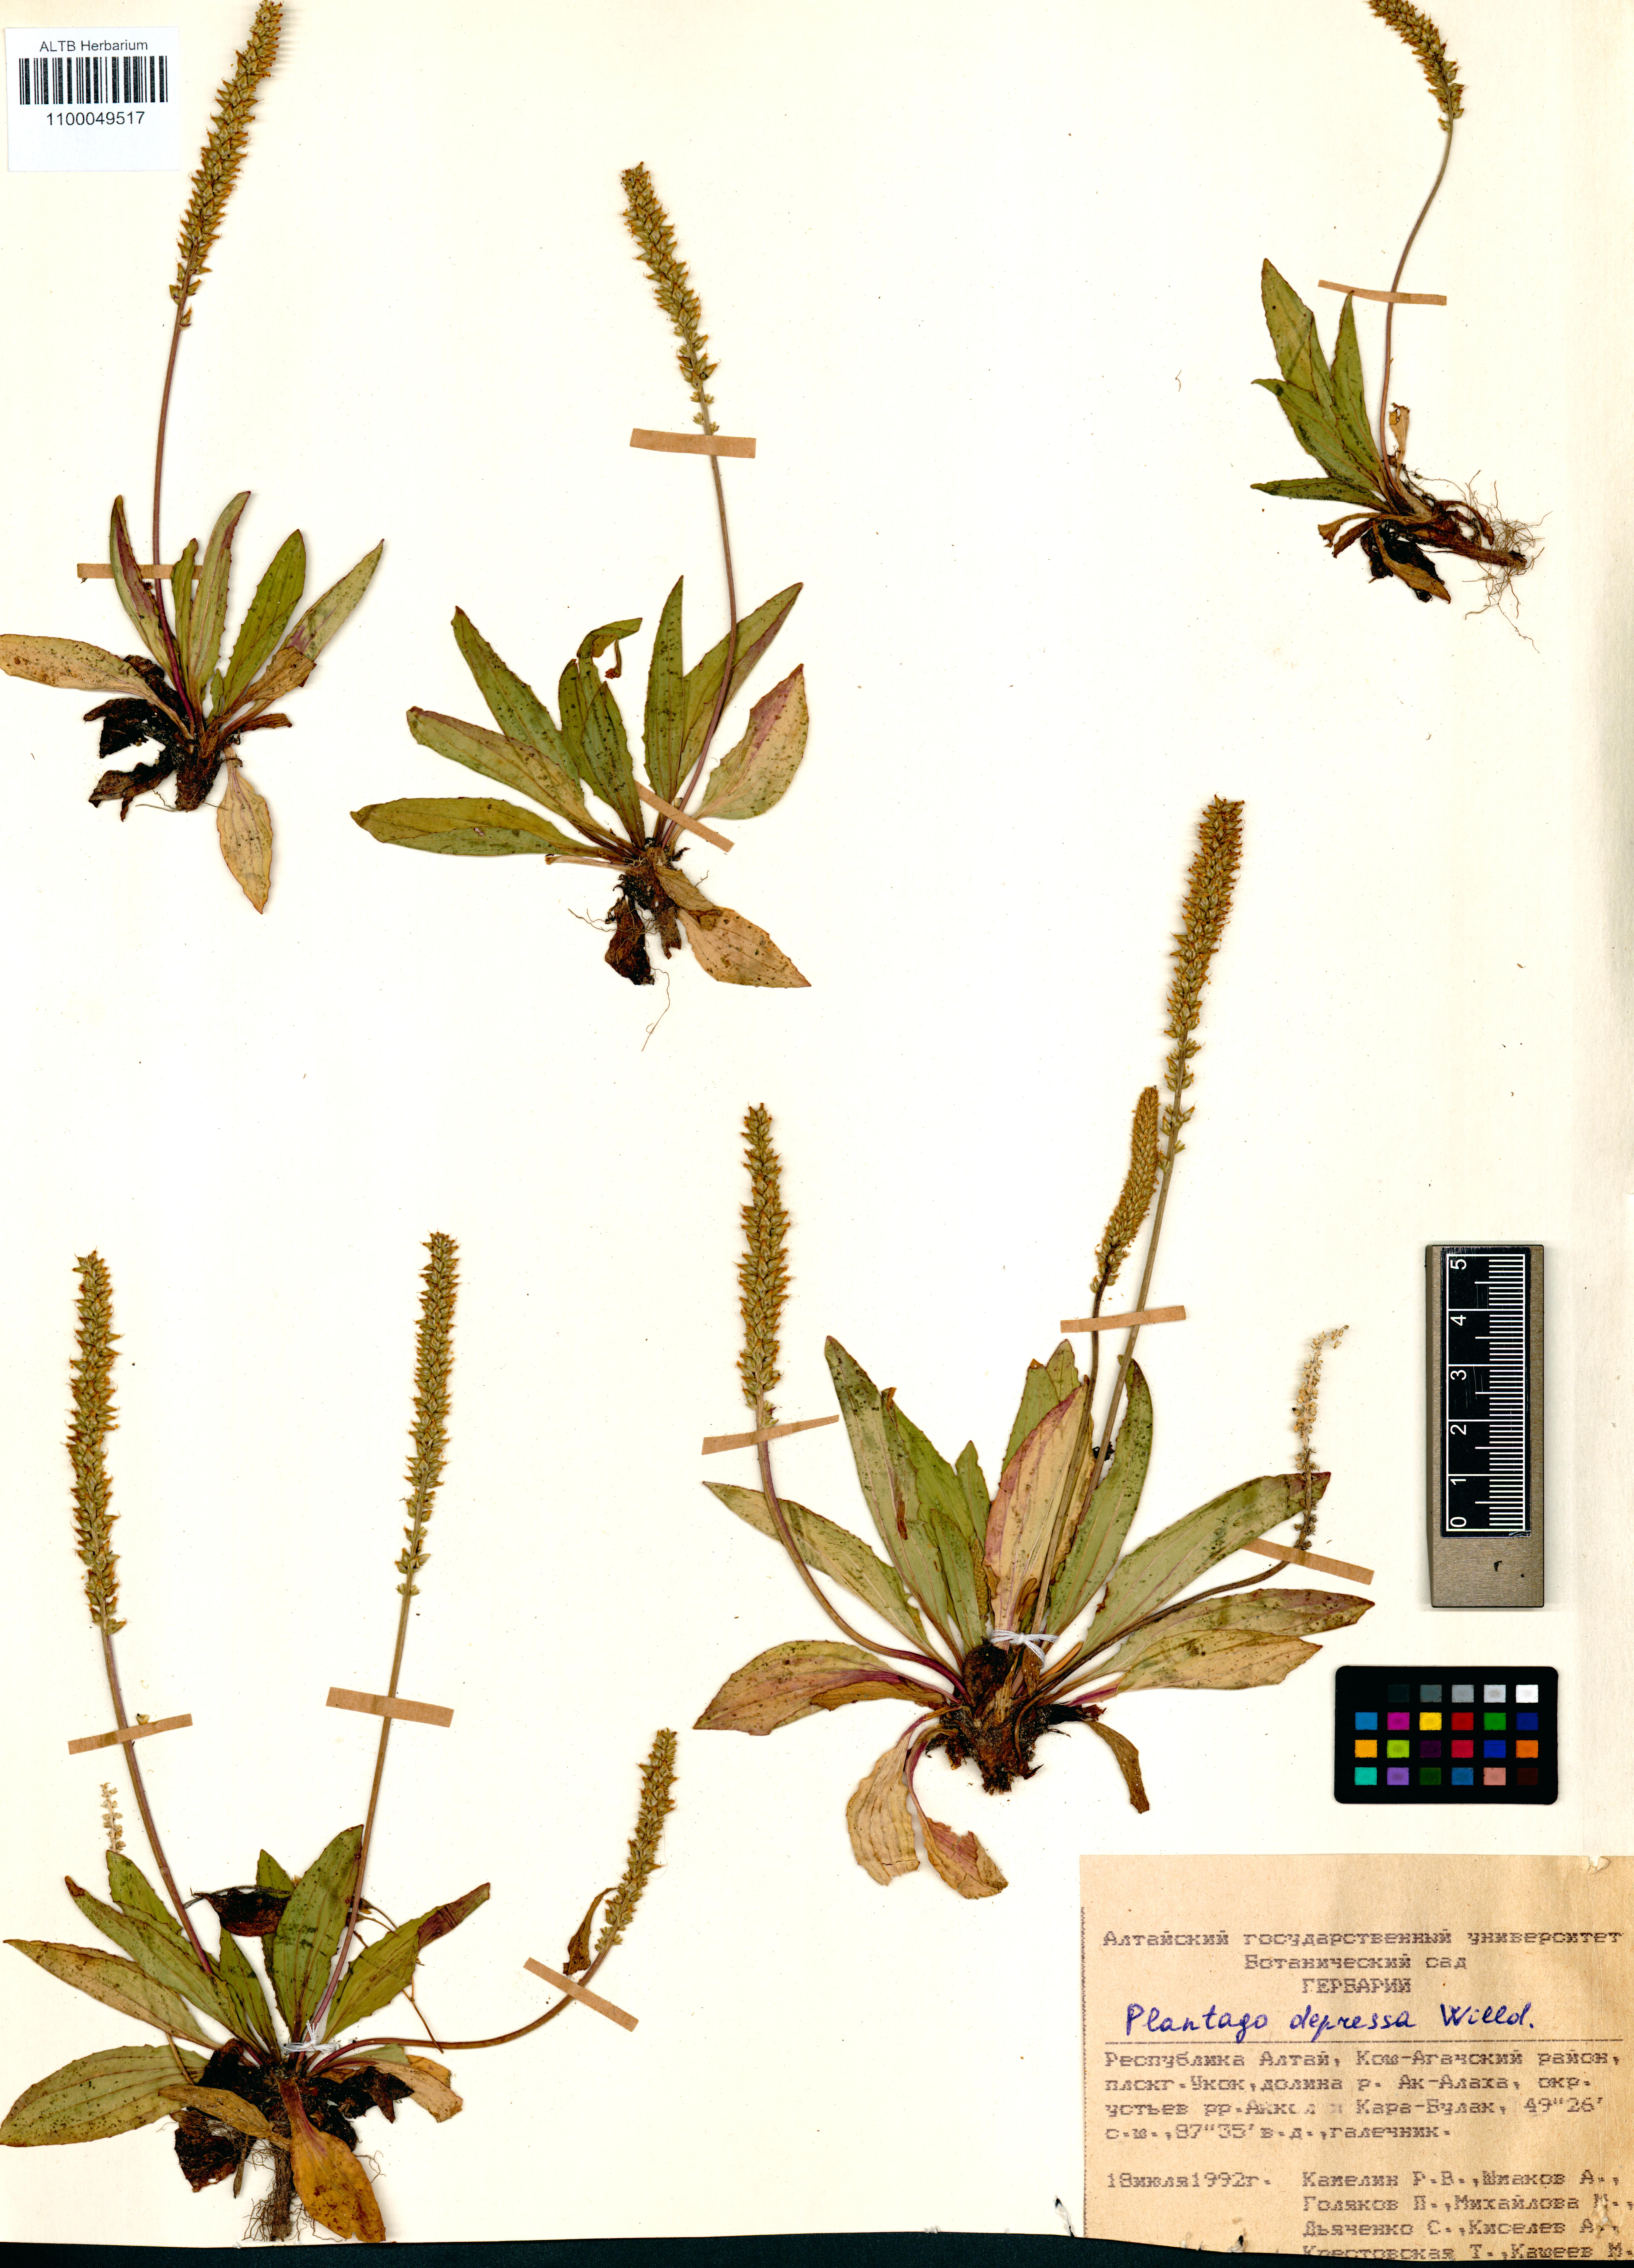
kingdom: Plantae
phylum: Tracheophyta
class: Magnoliopsida
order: Lamiales
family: Plantaginaceae
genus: Plantago
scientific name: Plantago depressa
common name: Depressed plantain
